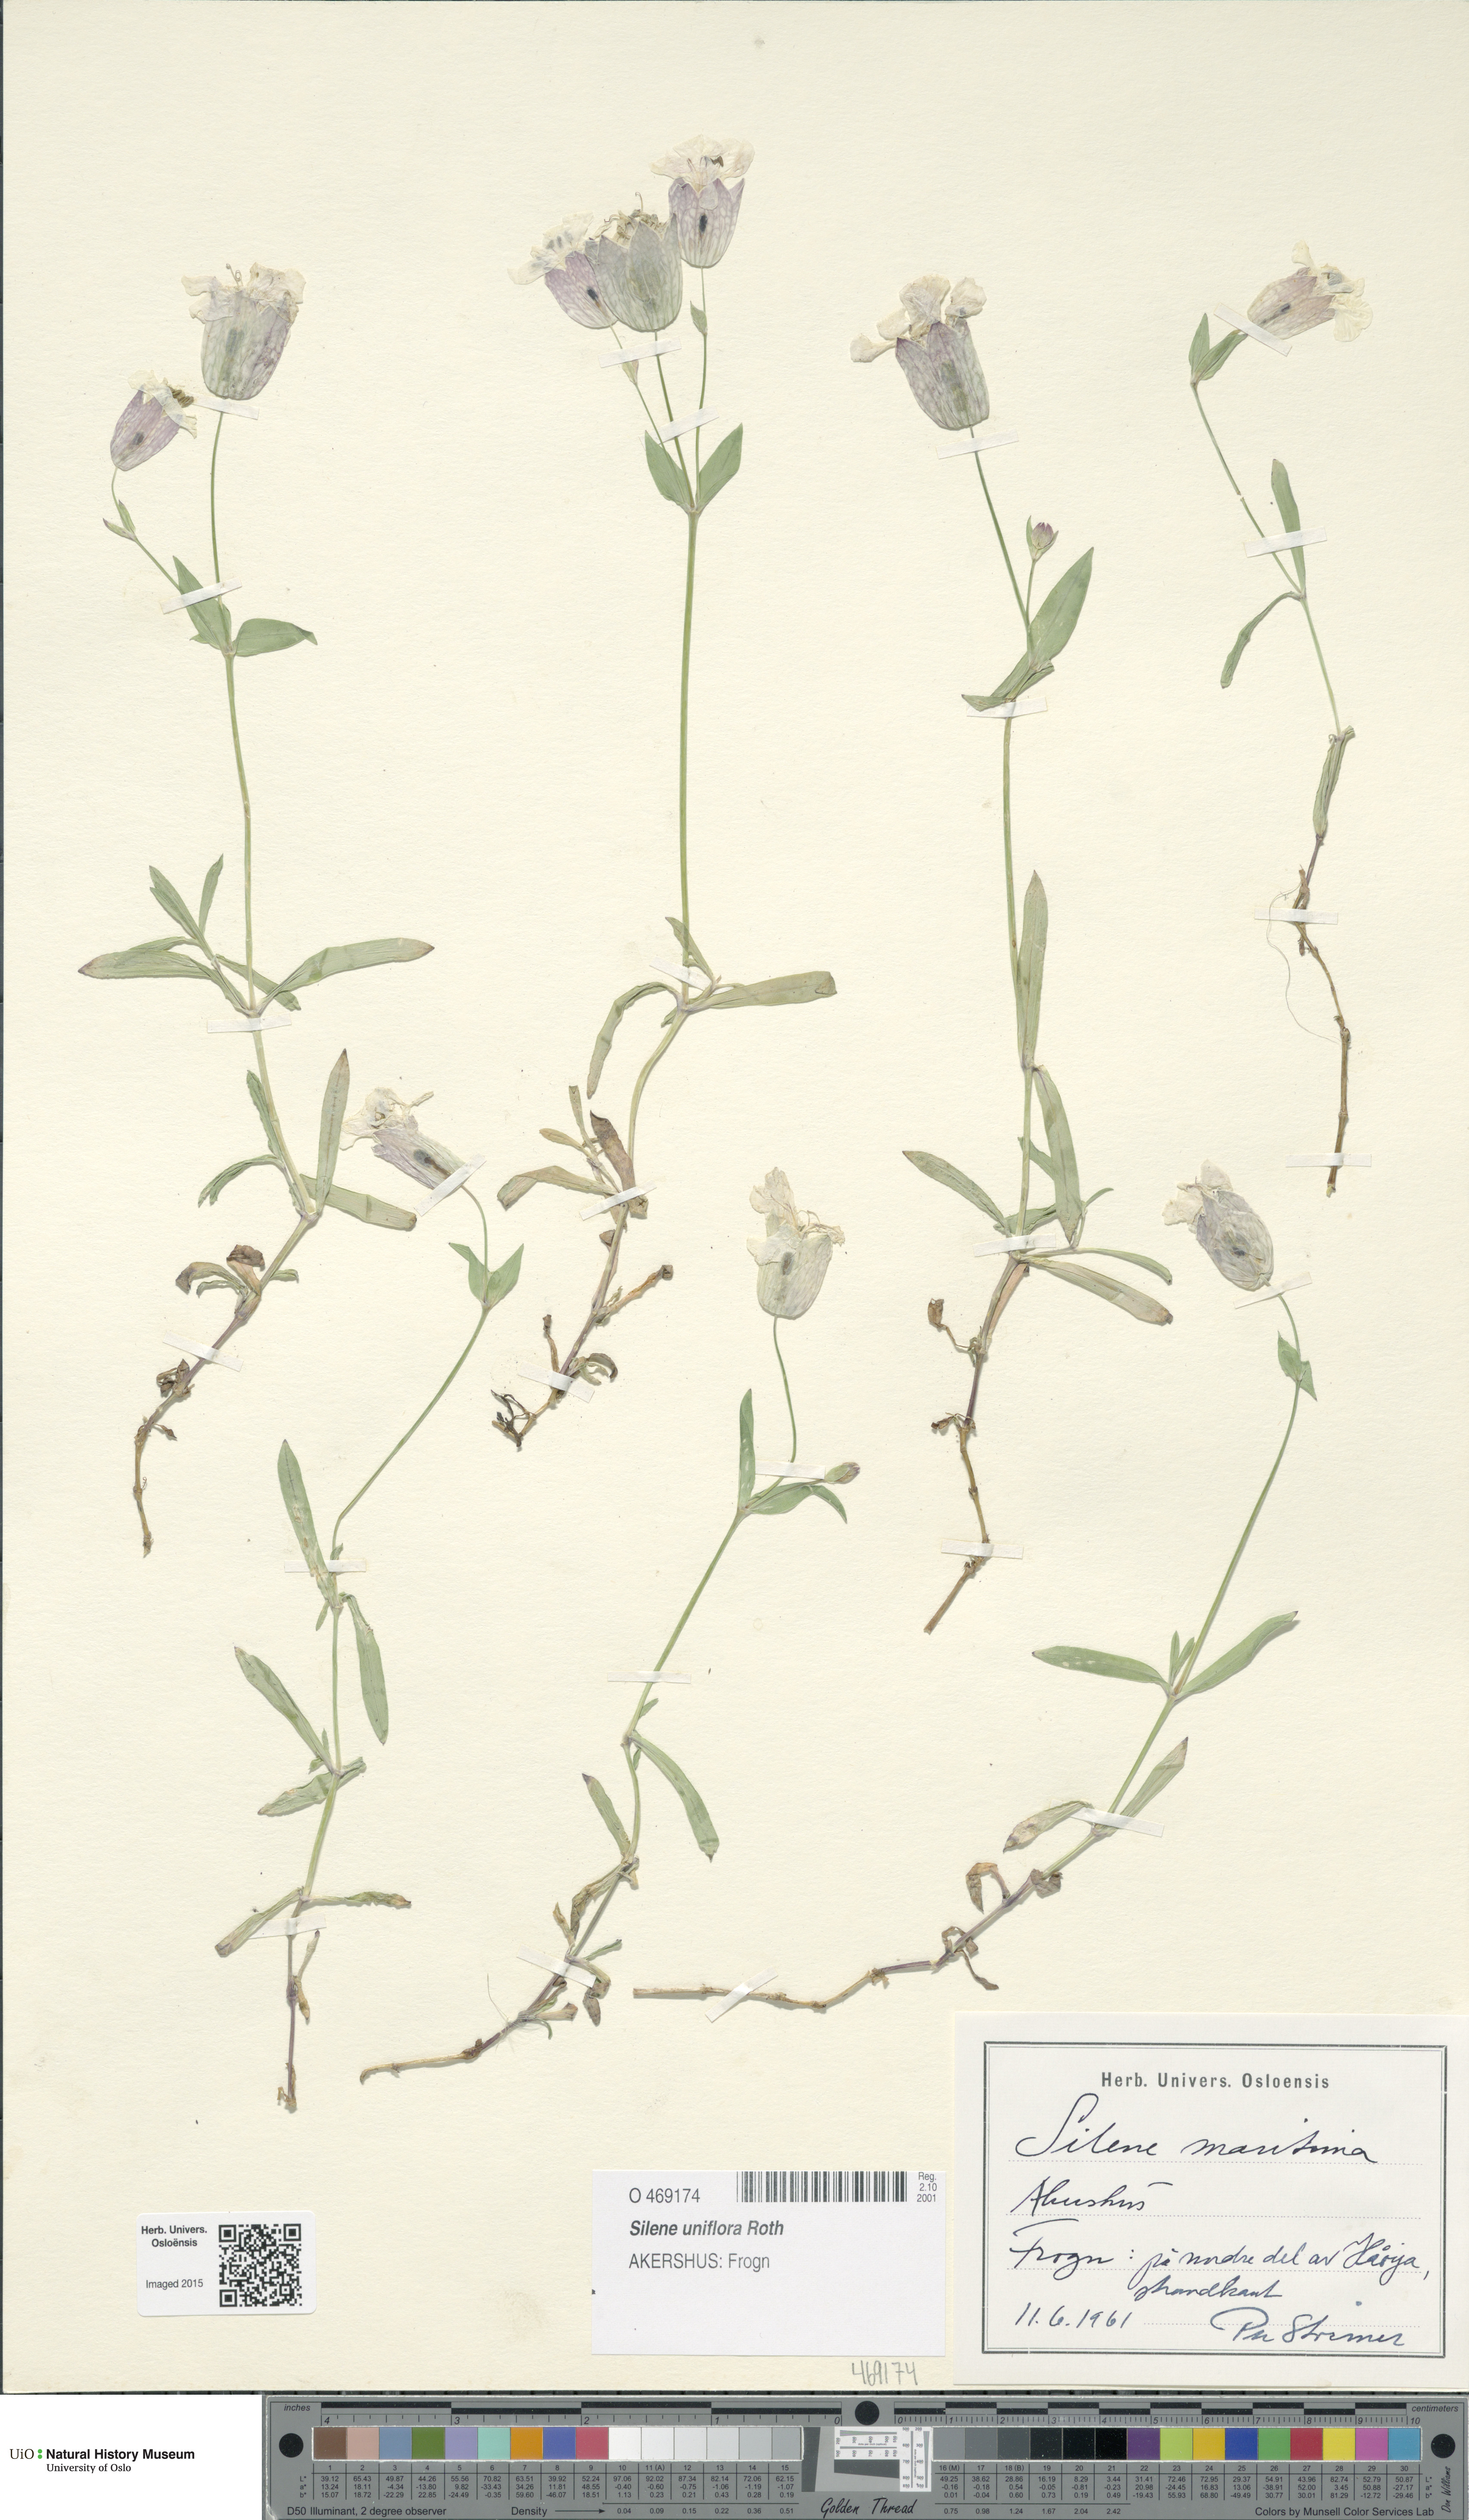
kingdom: Plantae
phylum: Tracheophyta
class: Magnoliopsida
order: Caryophyllales
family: Caryophyllaceae
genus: Silene
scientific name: Silene uniflora
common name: Sea campion
